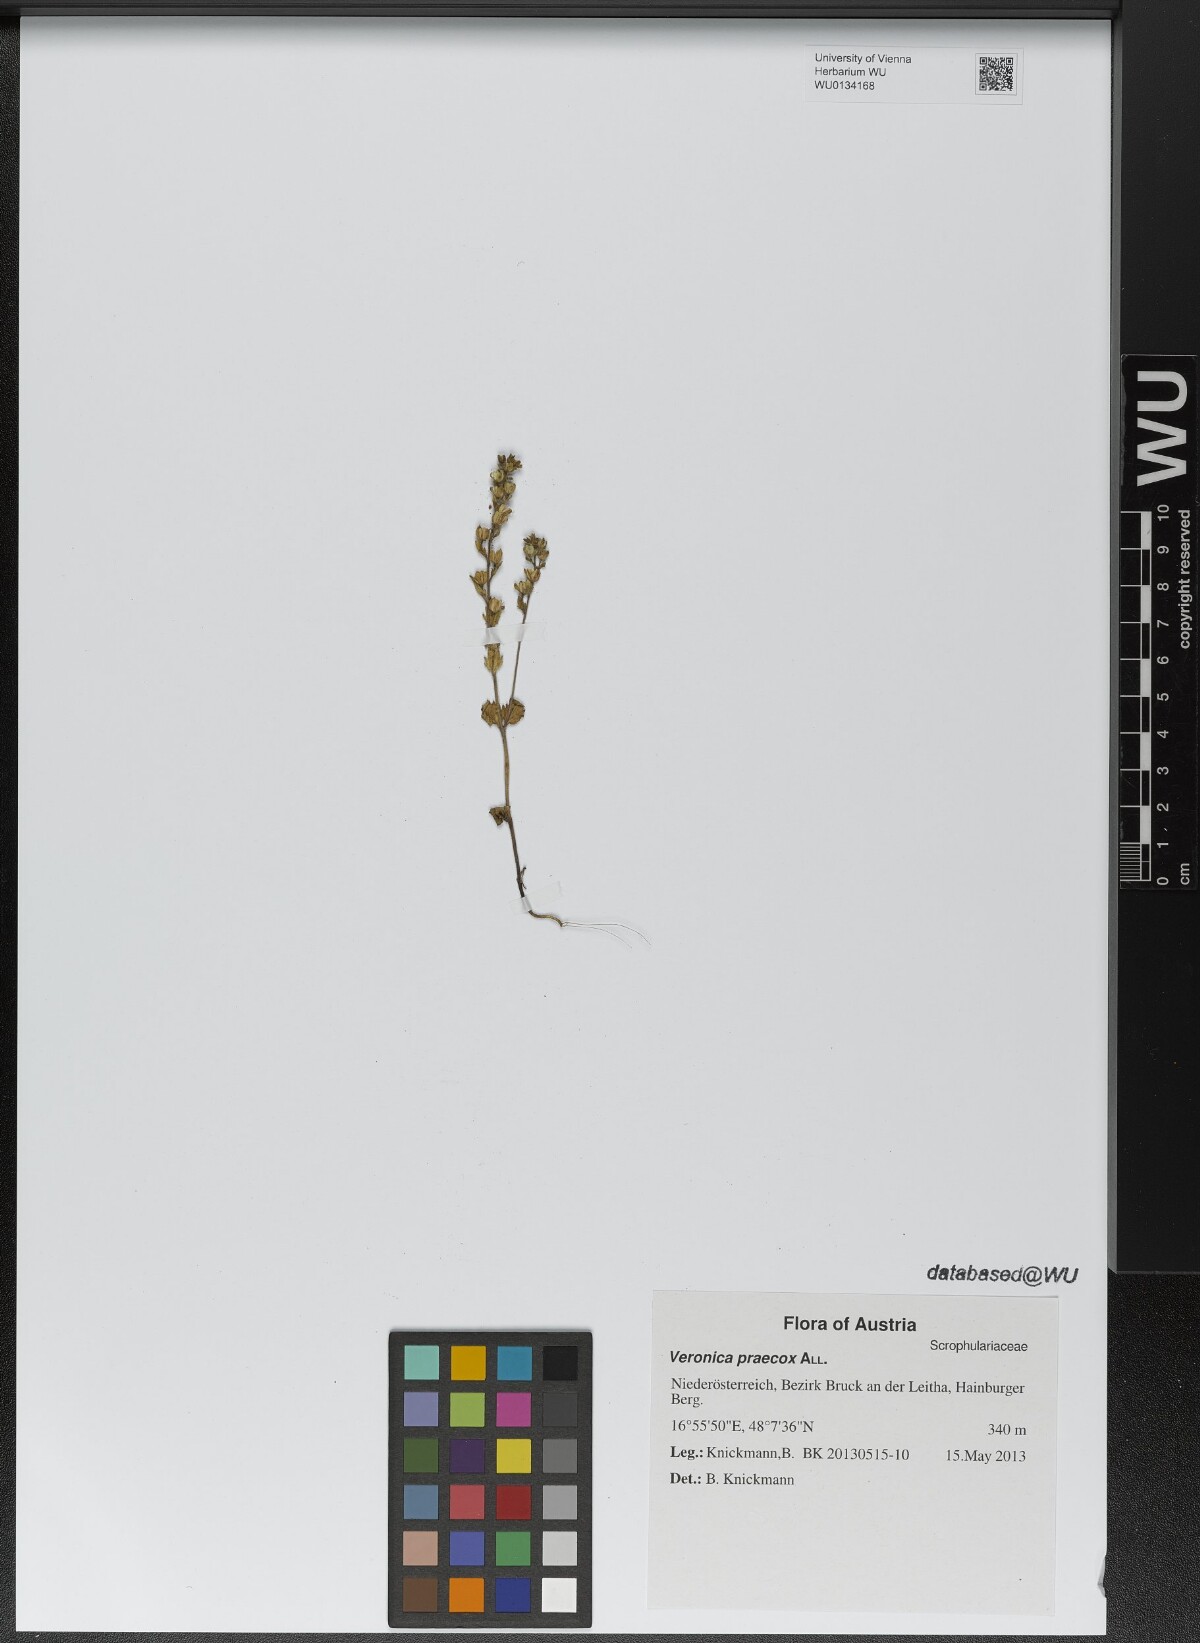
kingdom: Plantae
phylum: Tracheophyta
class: Magnoliopsida
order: Lamiales
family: Plantaginaceae
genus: Veronica
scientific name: Veronica praecox
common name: Breckland speedwell
